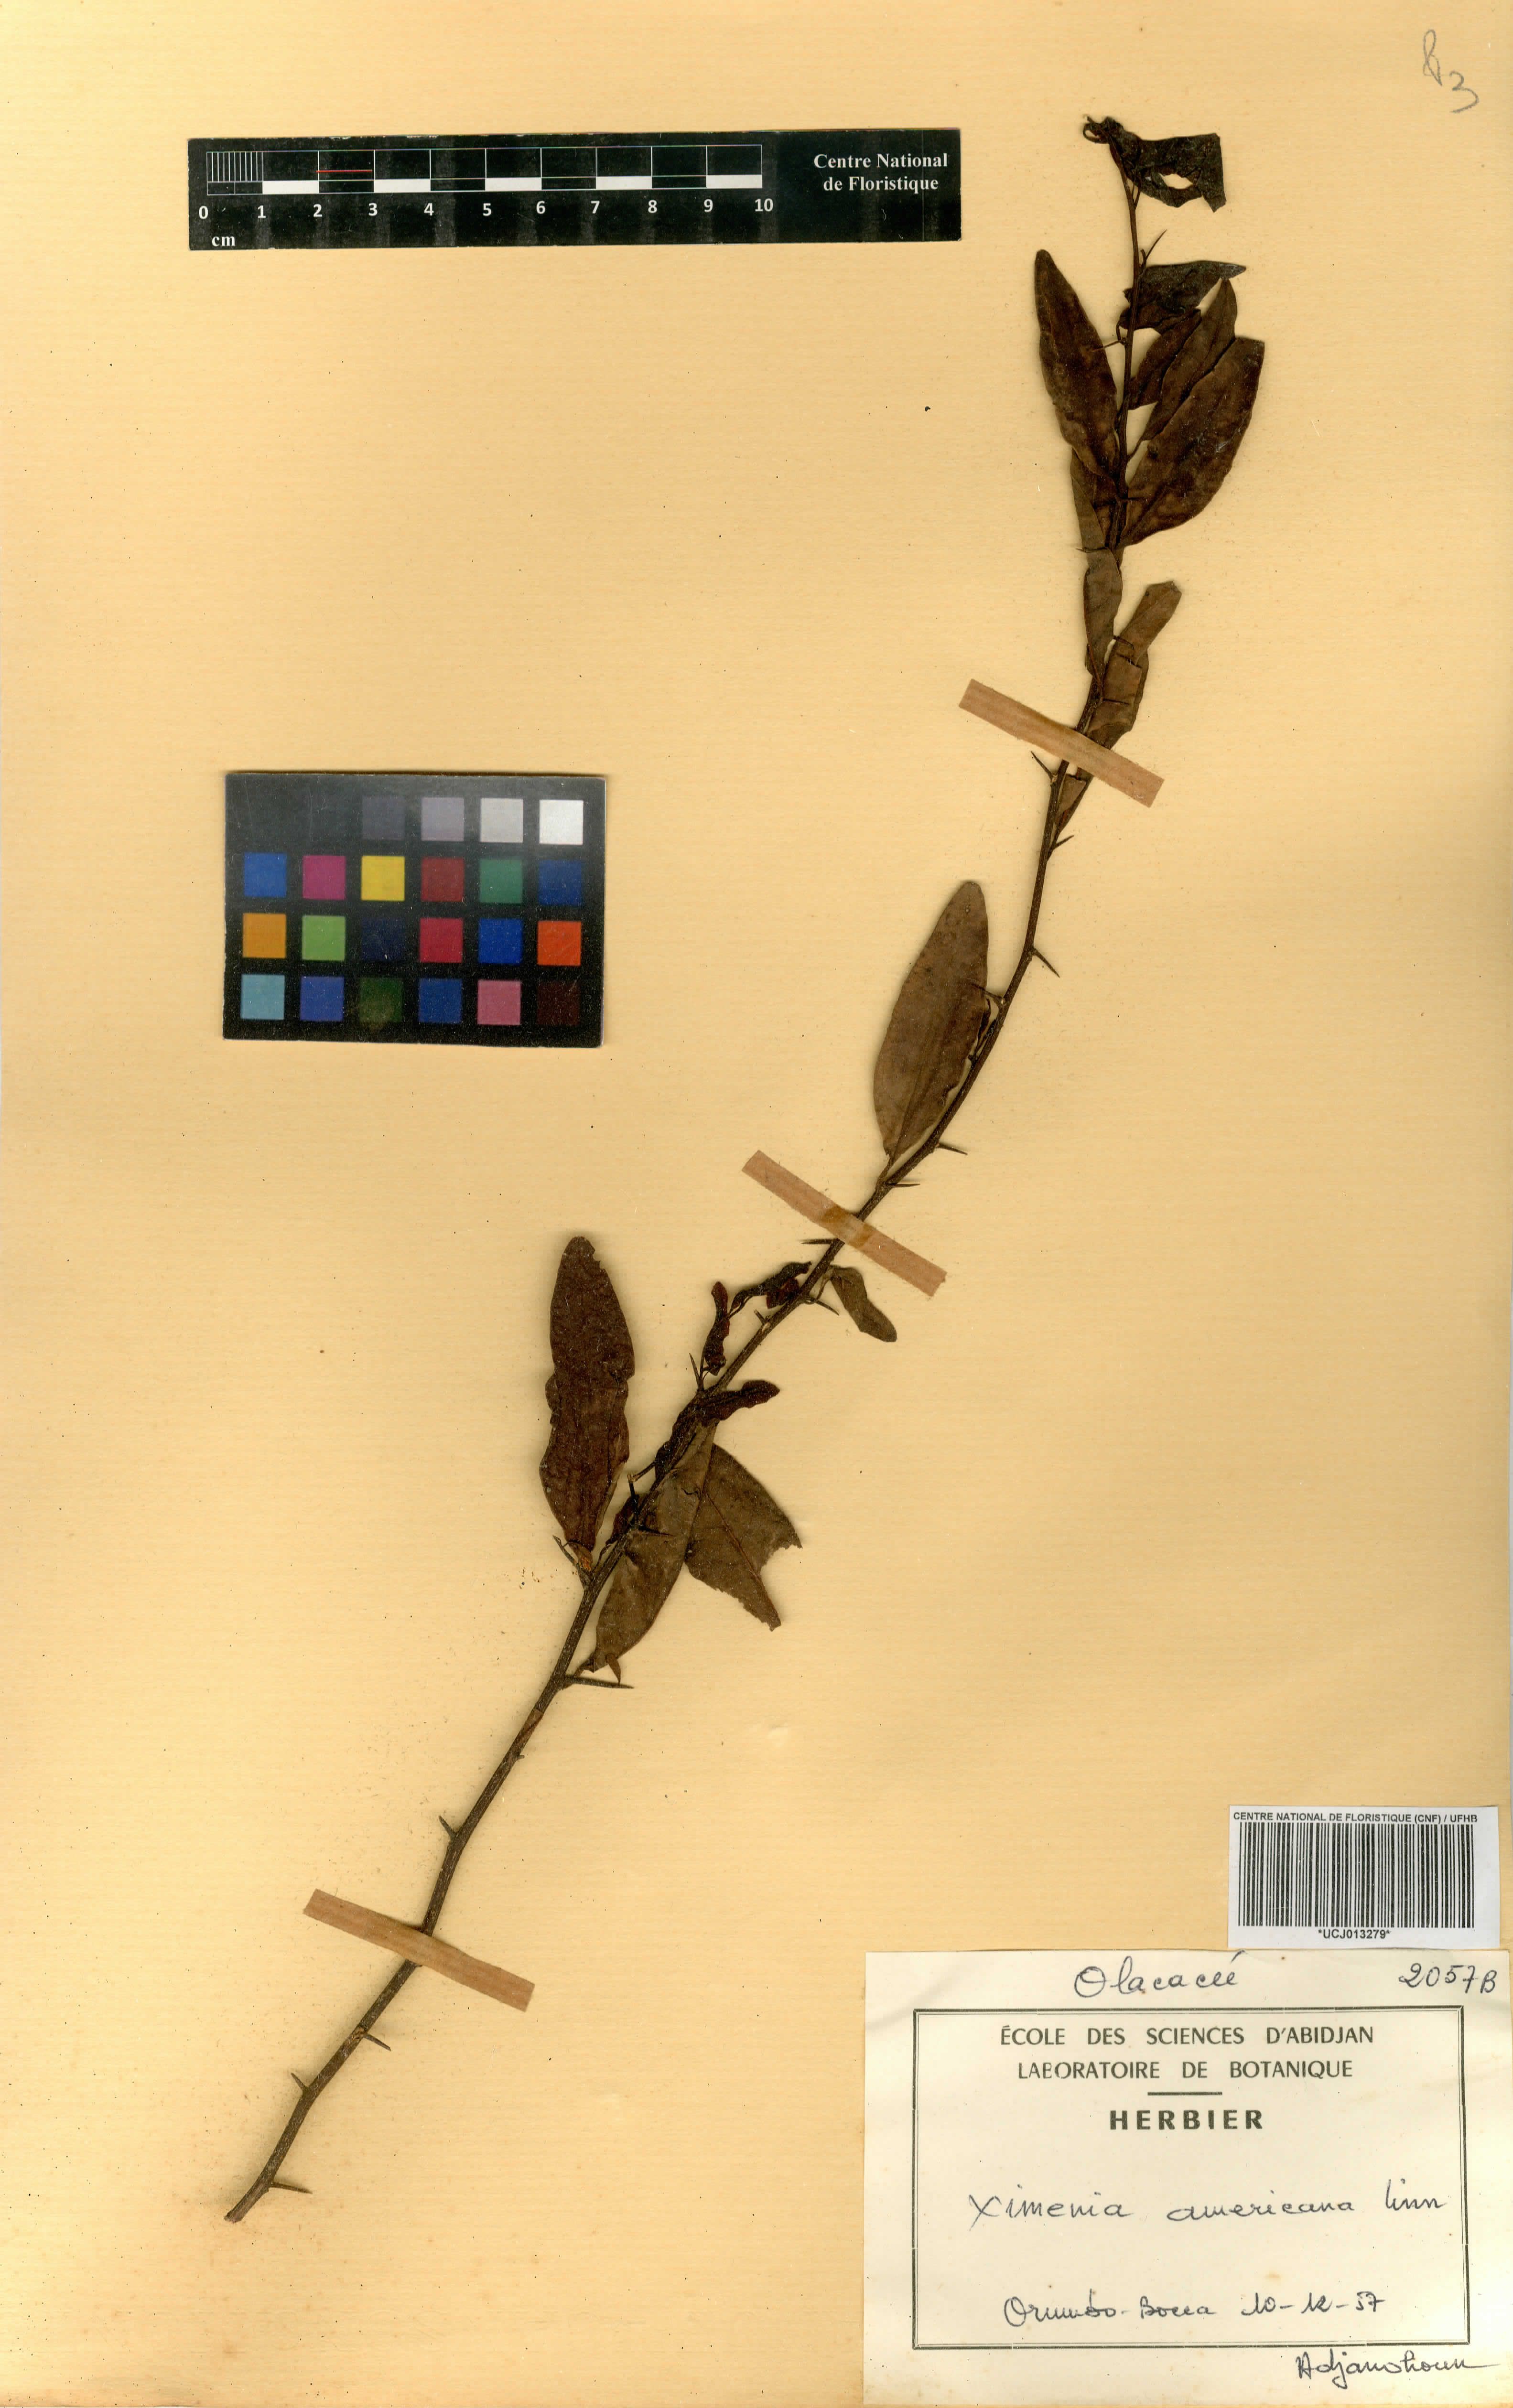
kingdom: Plantae
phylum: Tracheophyta
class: Magnoliopsida
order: Santalales
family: Ximeniaceae
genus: Ximenia
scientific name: Ximenia americana
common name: Tallowwood
